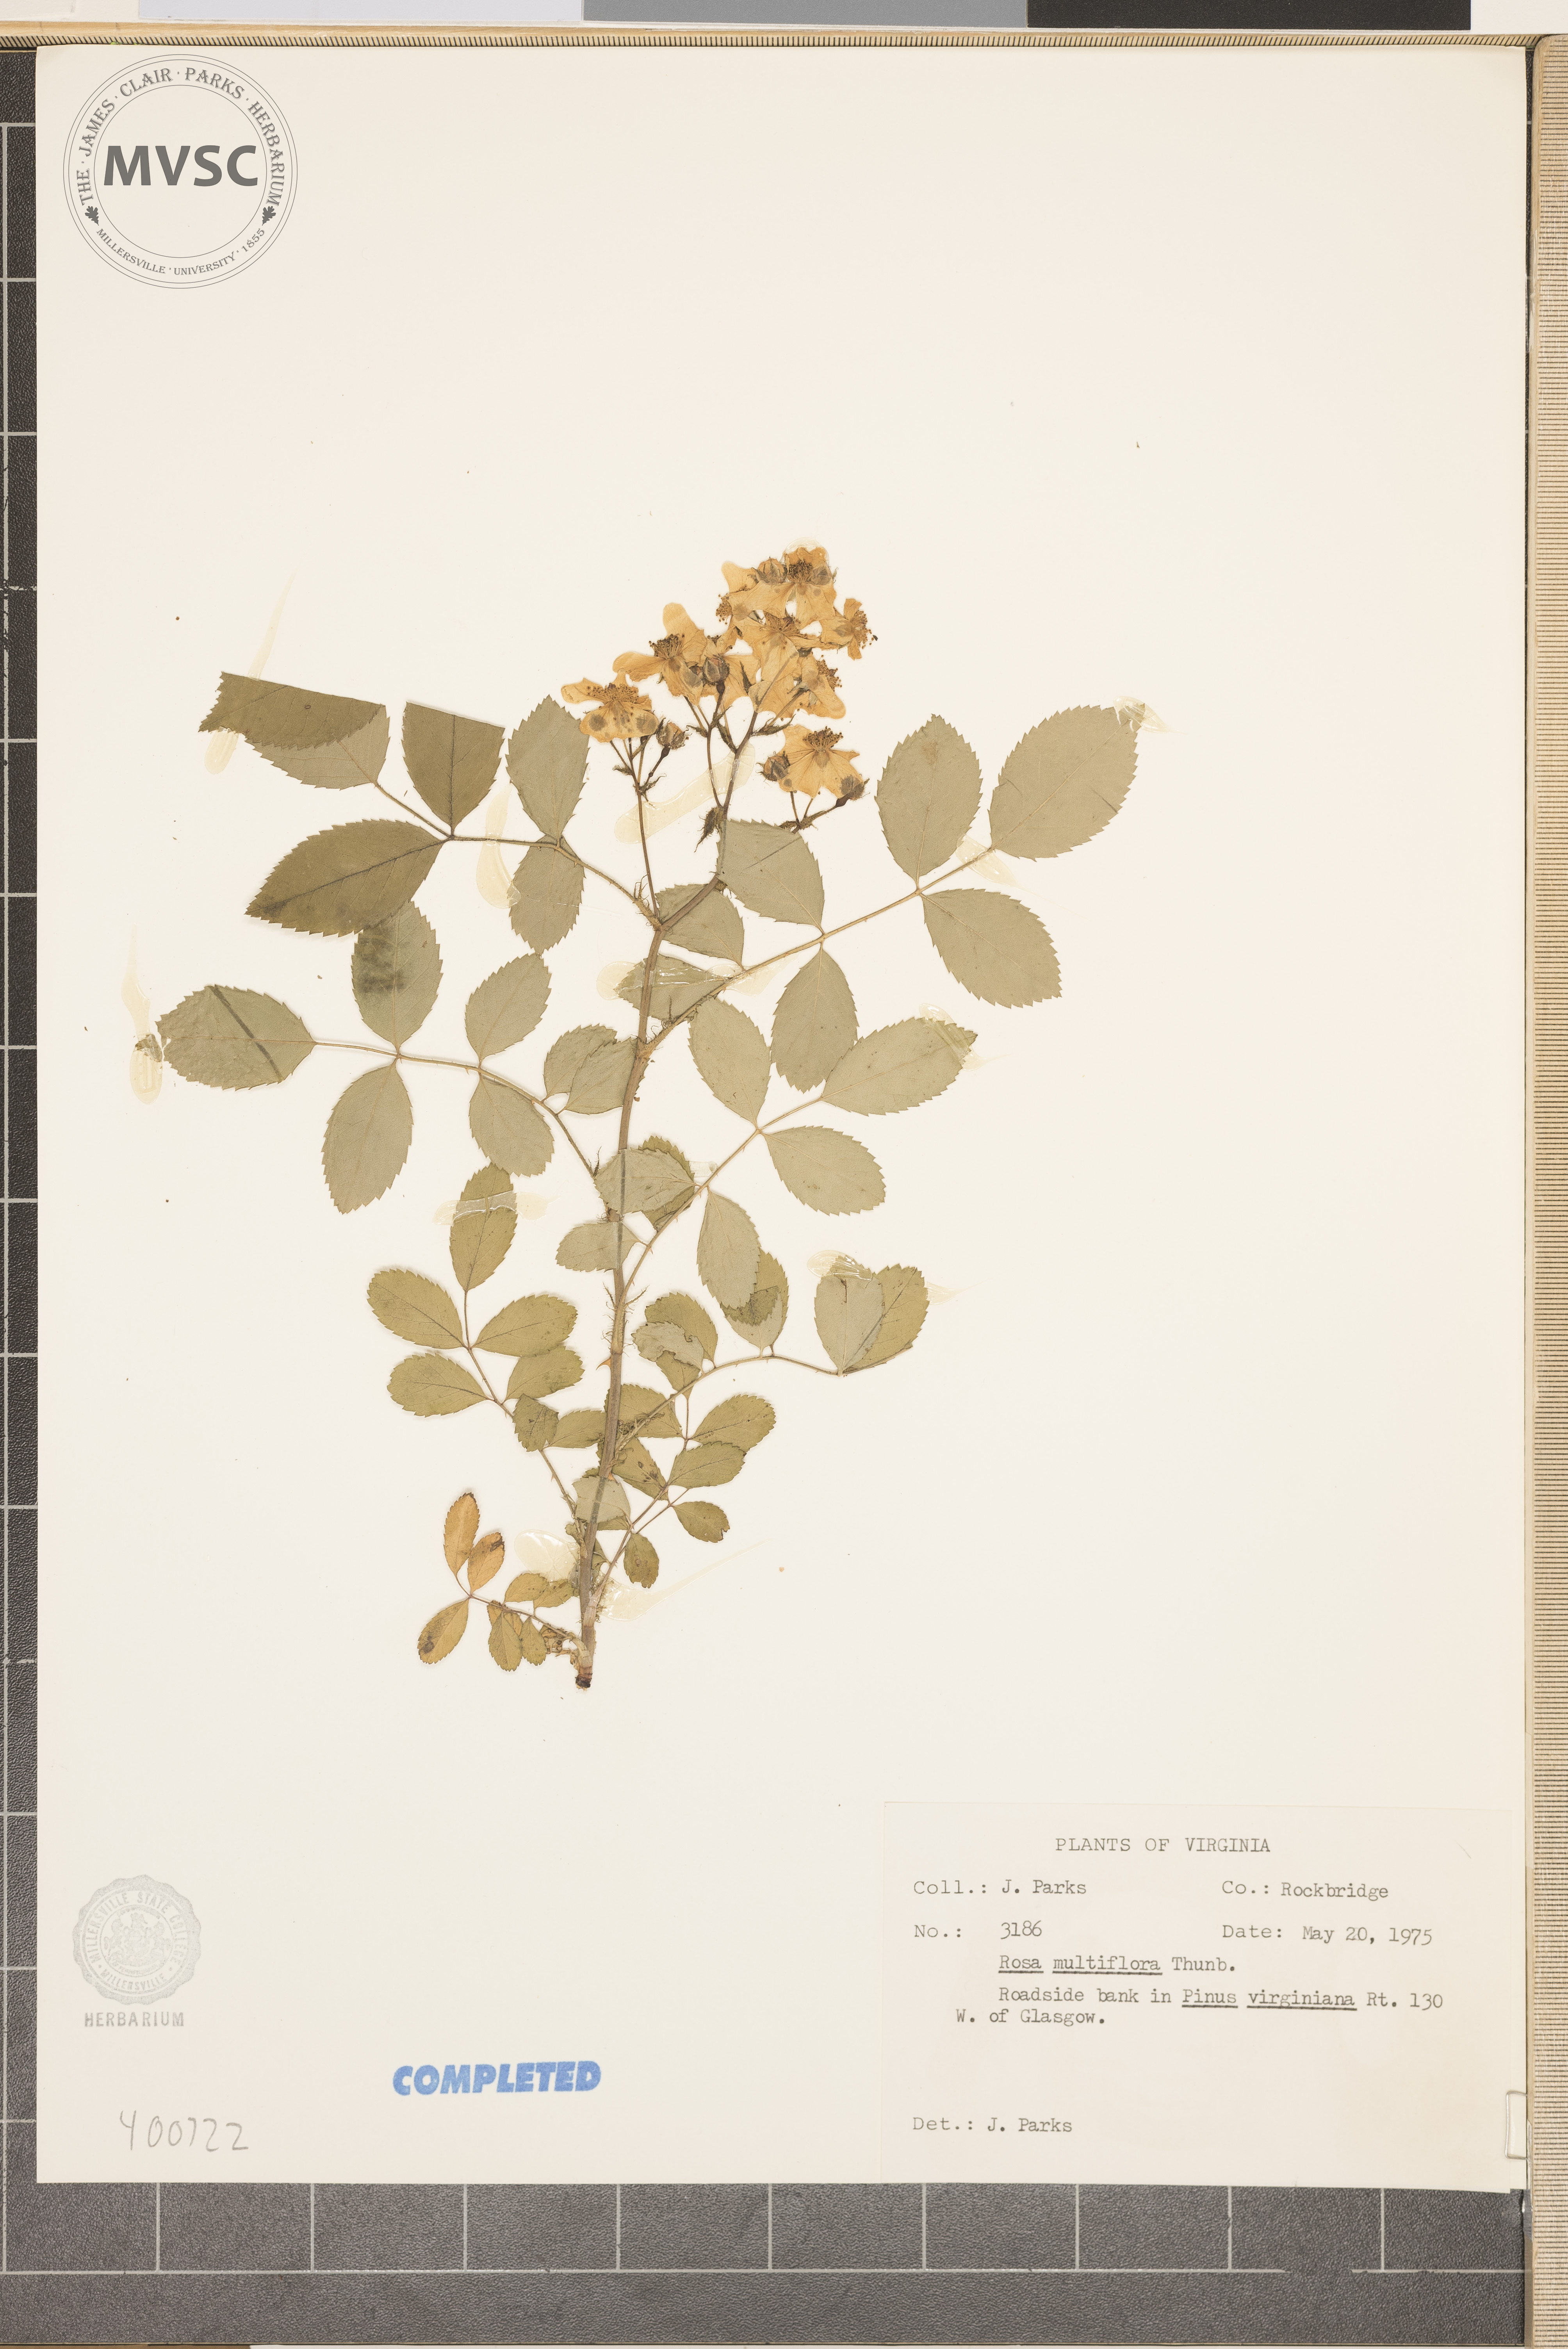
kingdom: Plantae
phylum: Tracheophyta
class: Magnoliopsida
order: Rosales
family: Rosaceae
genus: Rosa
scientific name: Rosa multiflora
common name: multiflora rose
